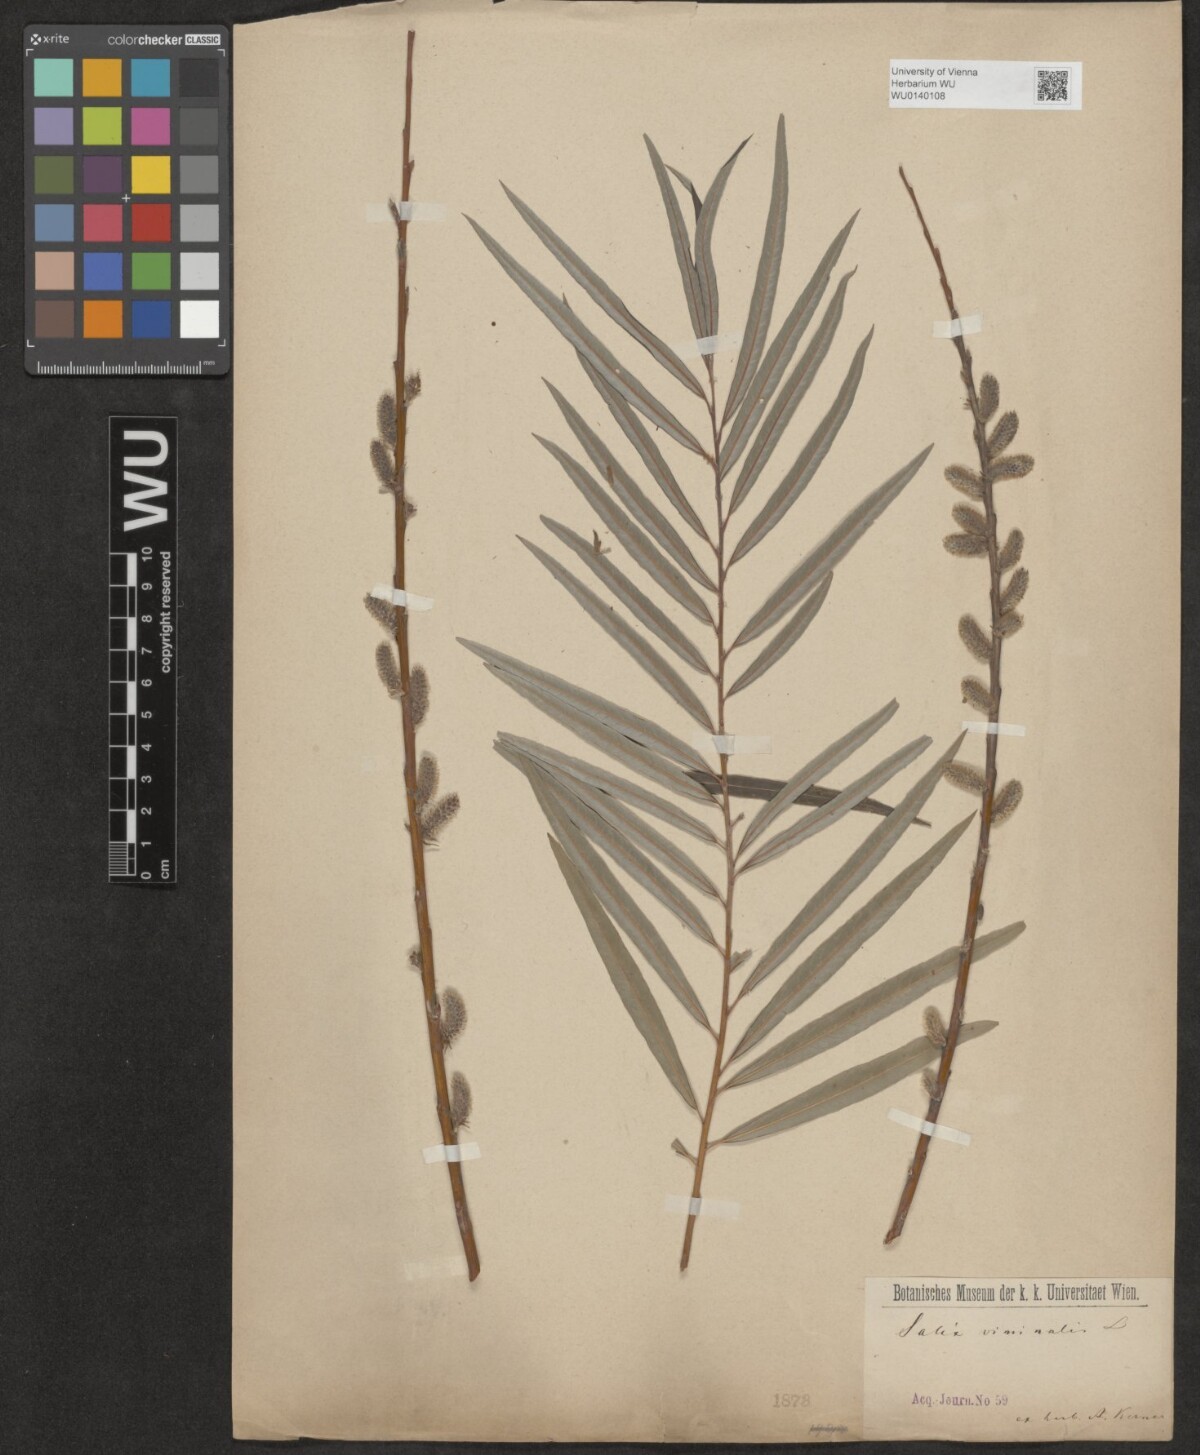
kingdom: Plantae
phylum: Tracheophyta
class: Magnoliopsida
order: Malpighiales
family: Salicaceae
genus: Salix
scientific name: Salix viminalis
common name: Osier
